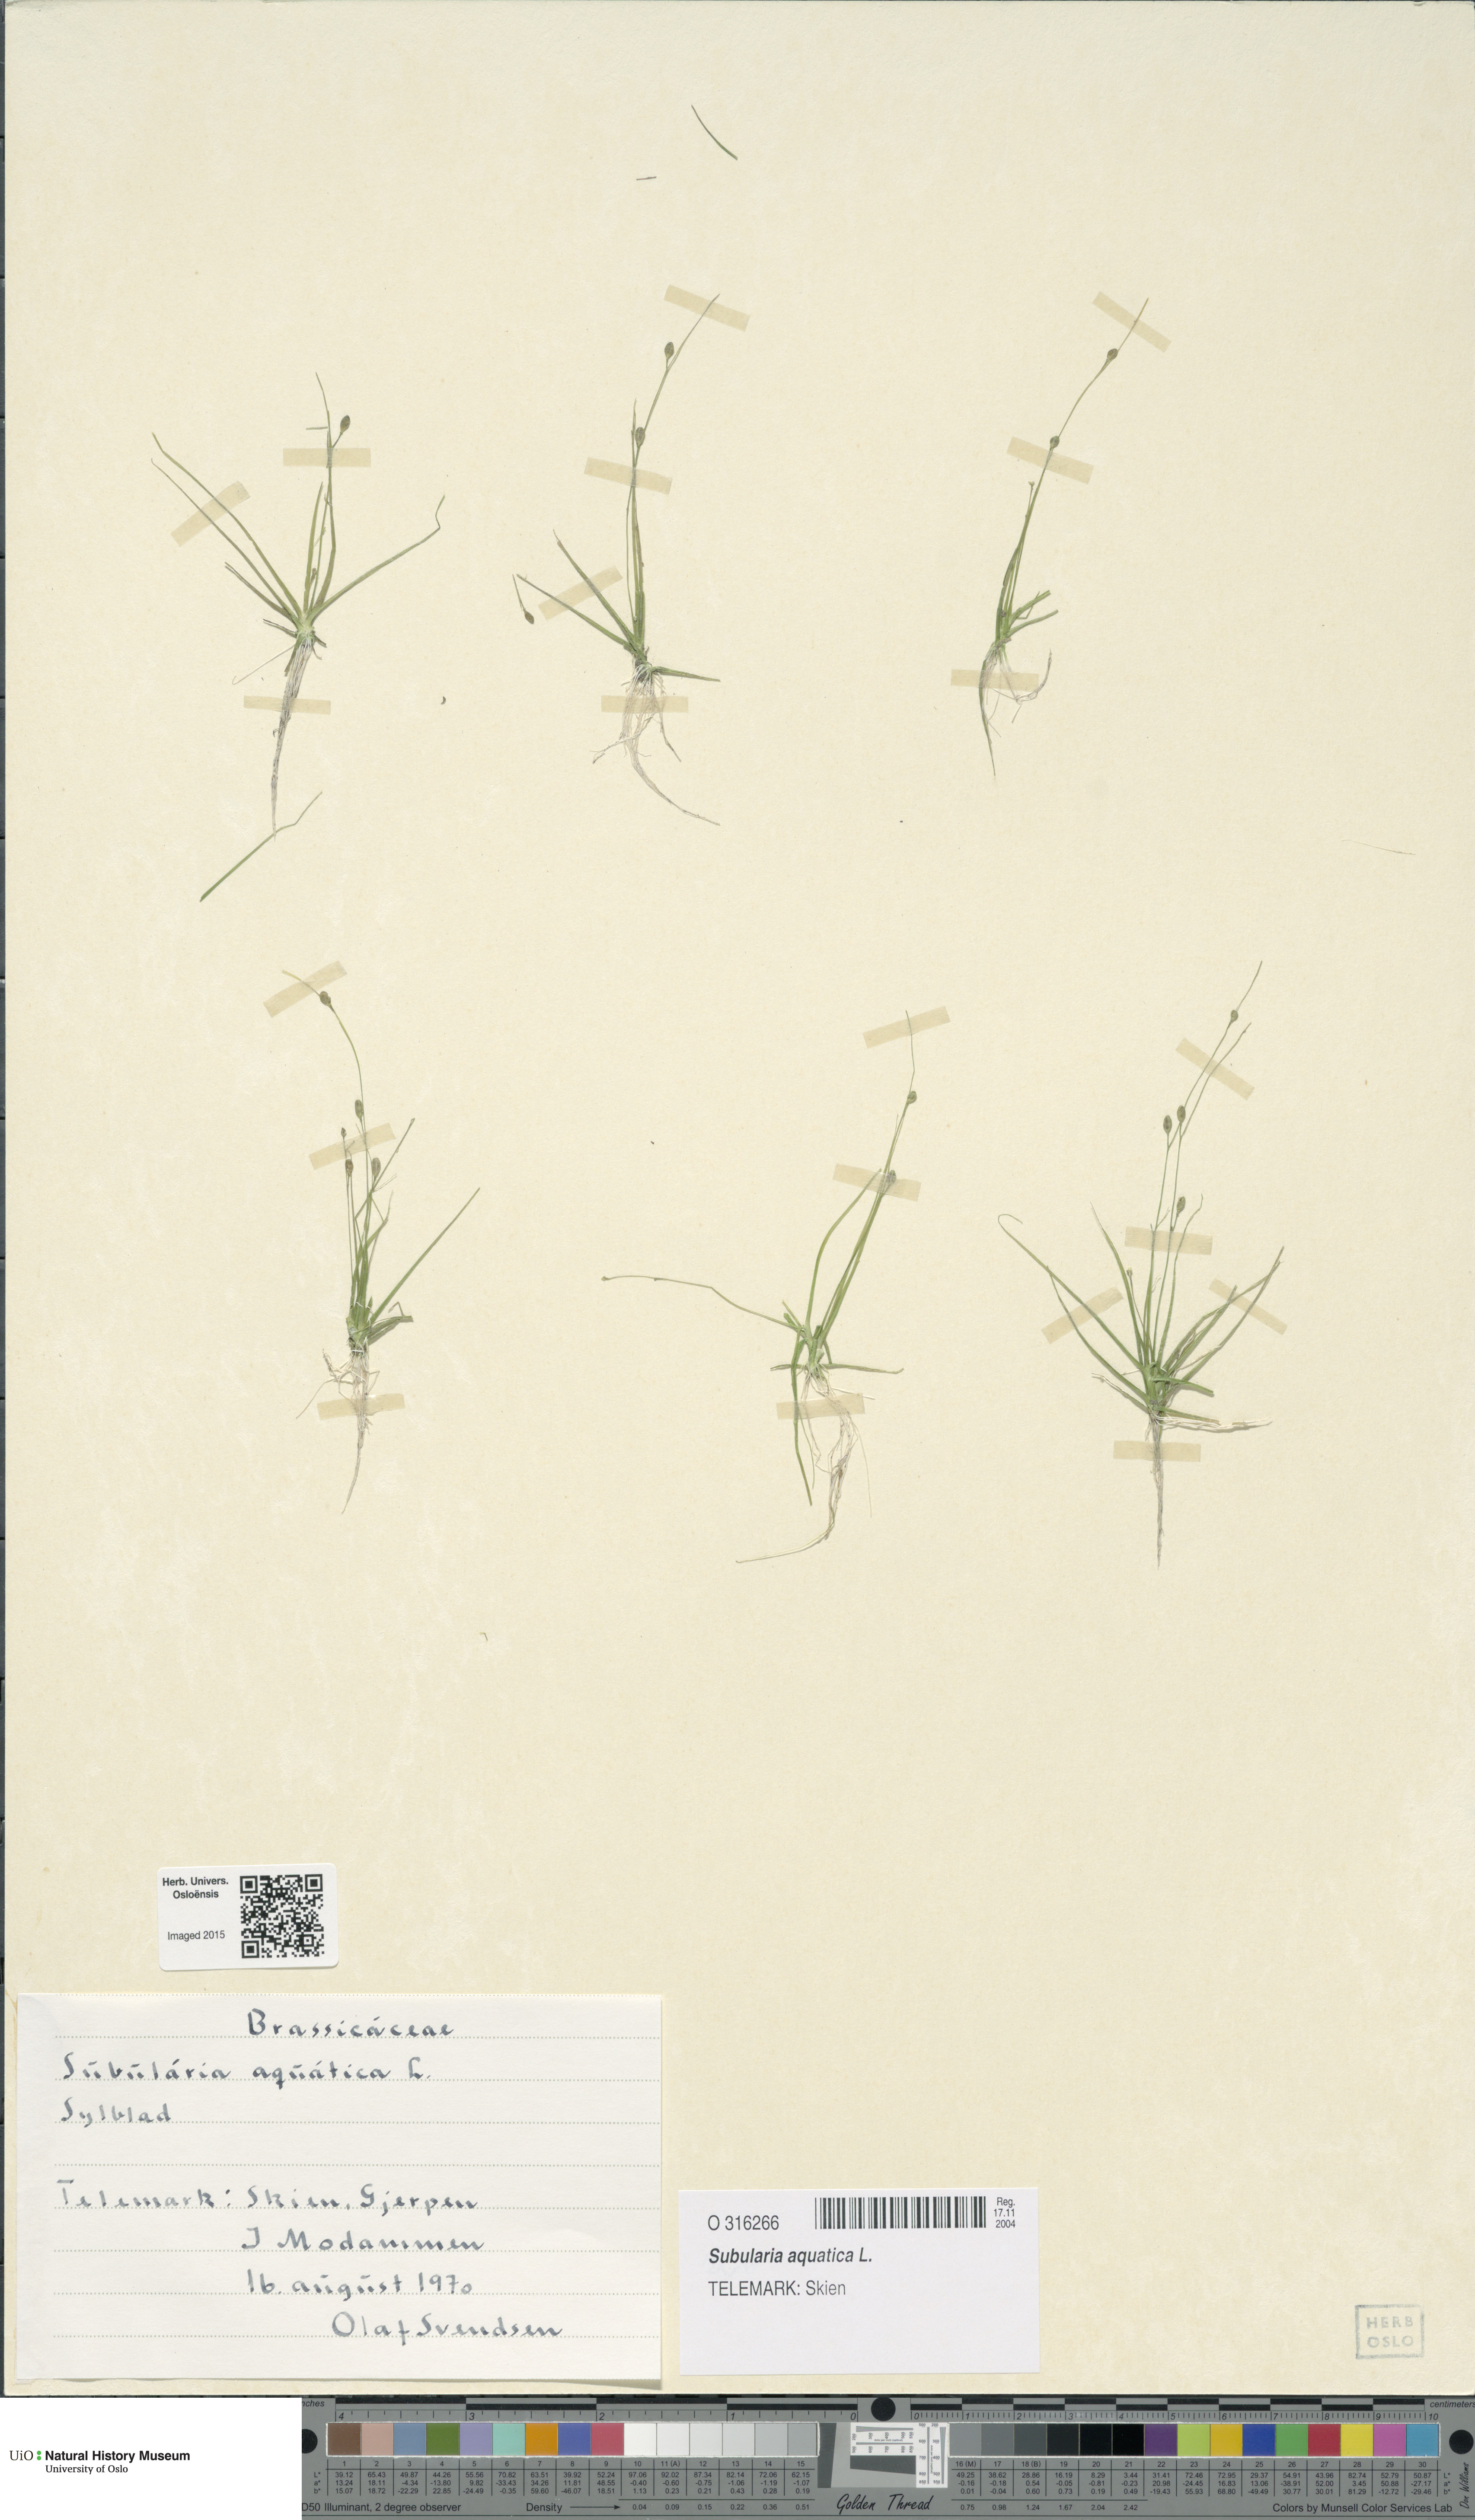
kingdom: Plantae
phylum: Tracheophyta
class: Magnoliopsida
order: Brassicales
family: Brassicaceae
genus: Subularia
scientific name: Subularia aquatica
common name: Awlwort
